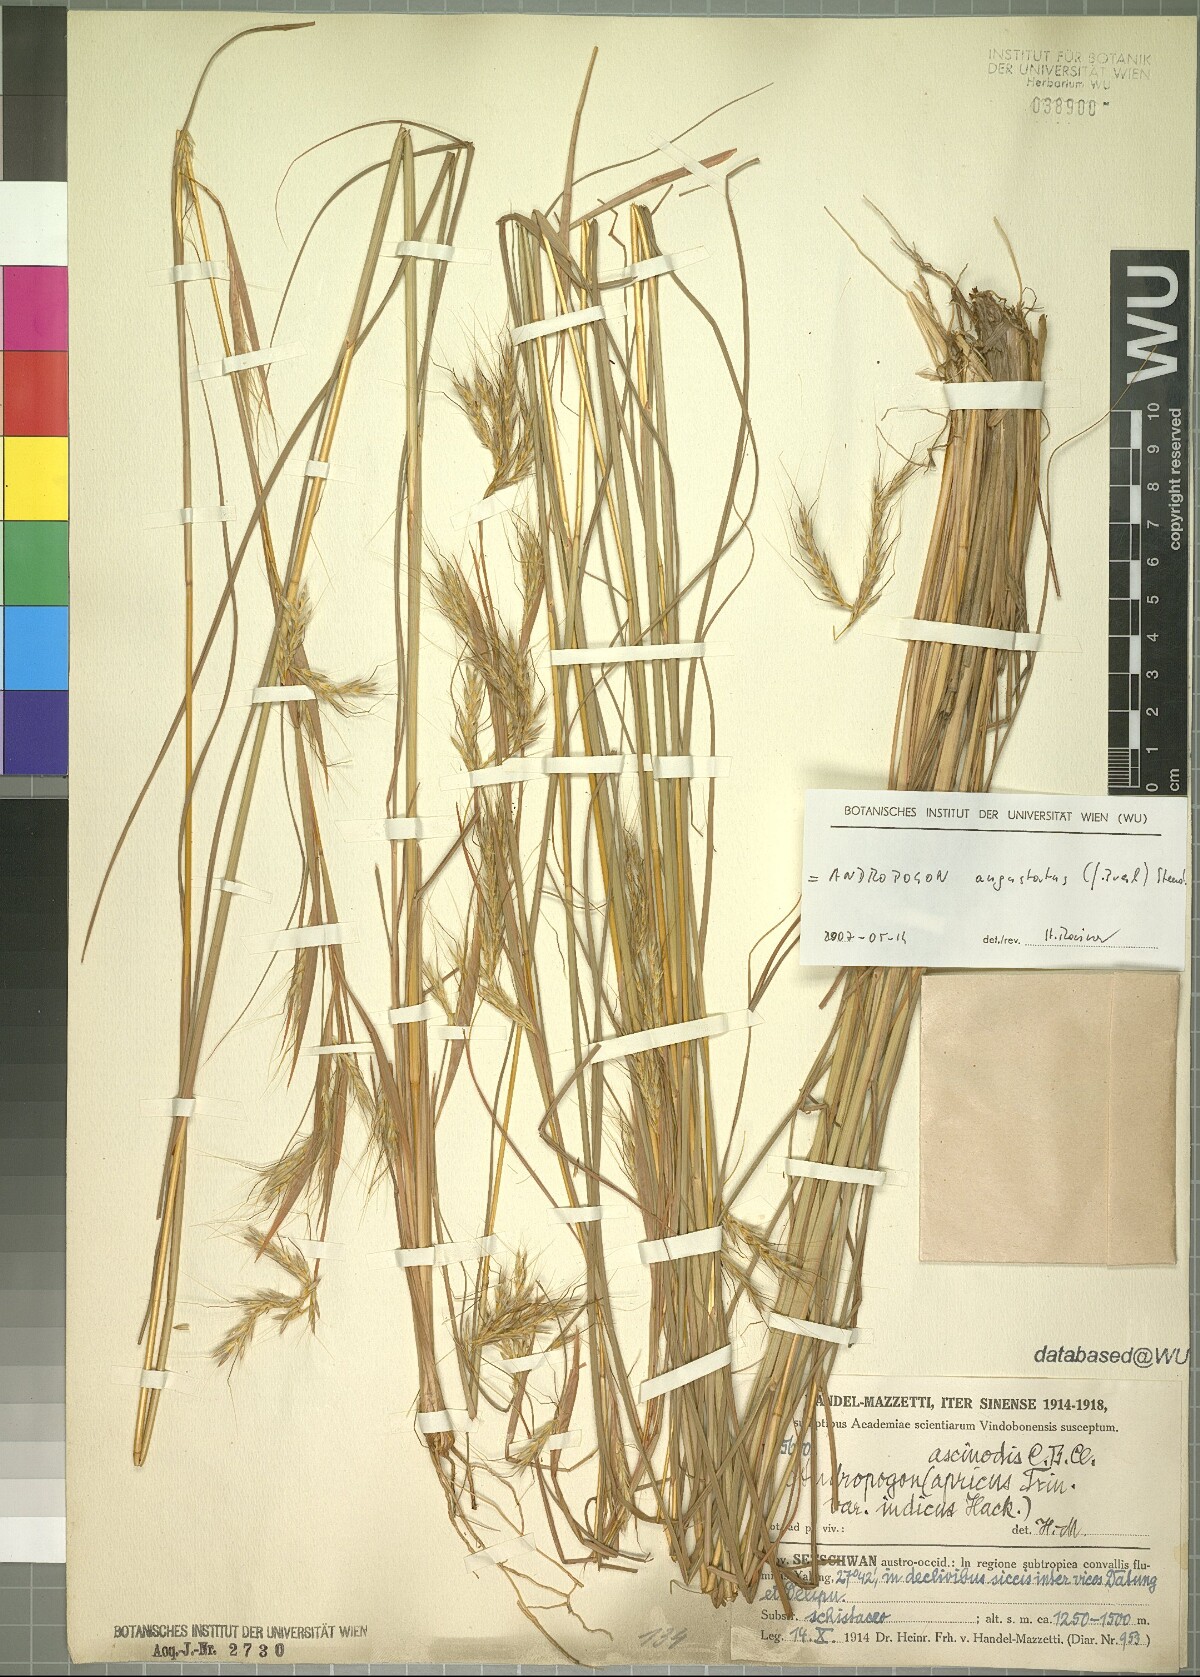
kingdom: Plantae
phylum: Tracheophyta
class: Liliopsida
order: Poales
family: Poaceae
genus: Andropogon
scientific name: Andropogon angustatus
